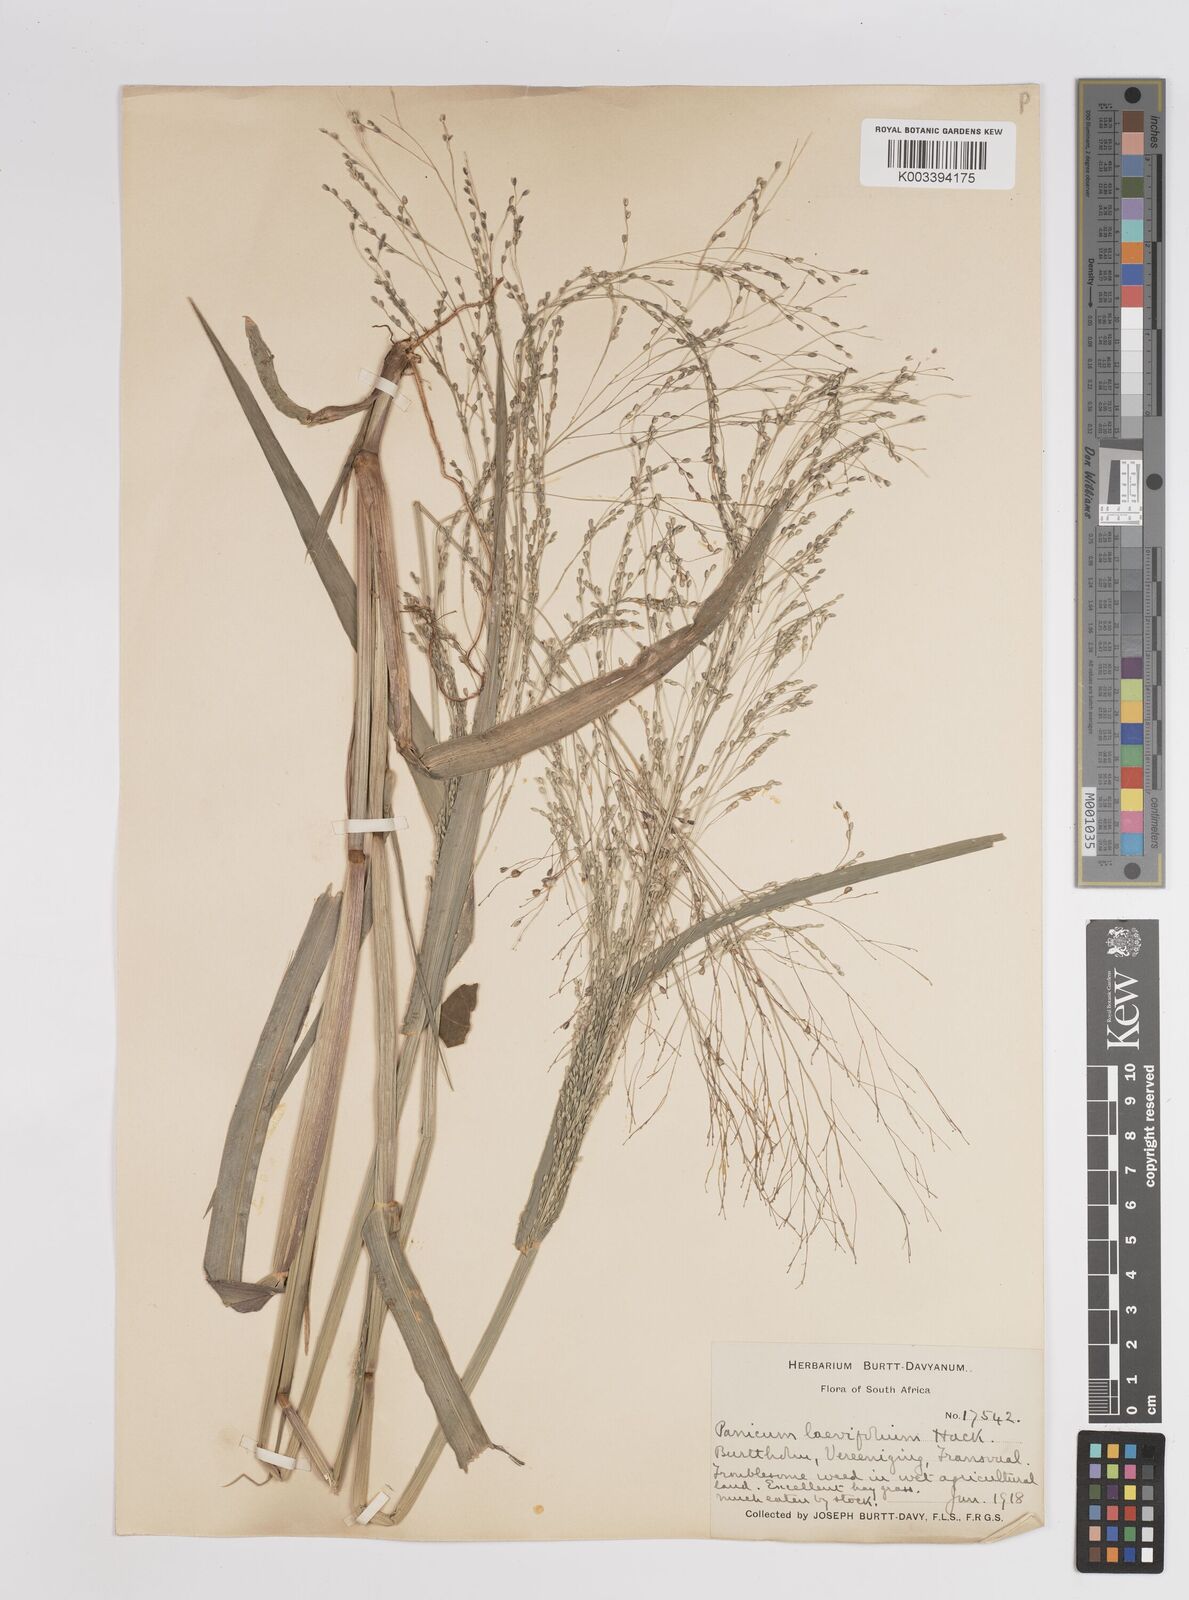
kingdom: Plantae
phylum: Tracheophyta
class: Liliopsida
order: Poales
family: Poaceae
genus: Panicum
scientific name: Panicum schinzii
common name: Sweet grass
